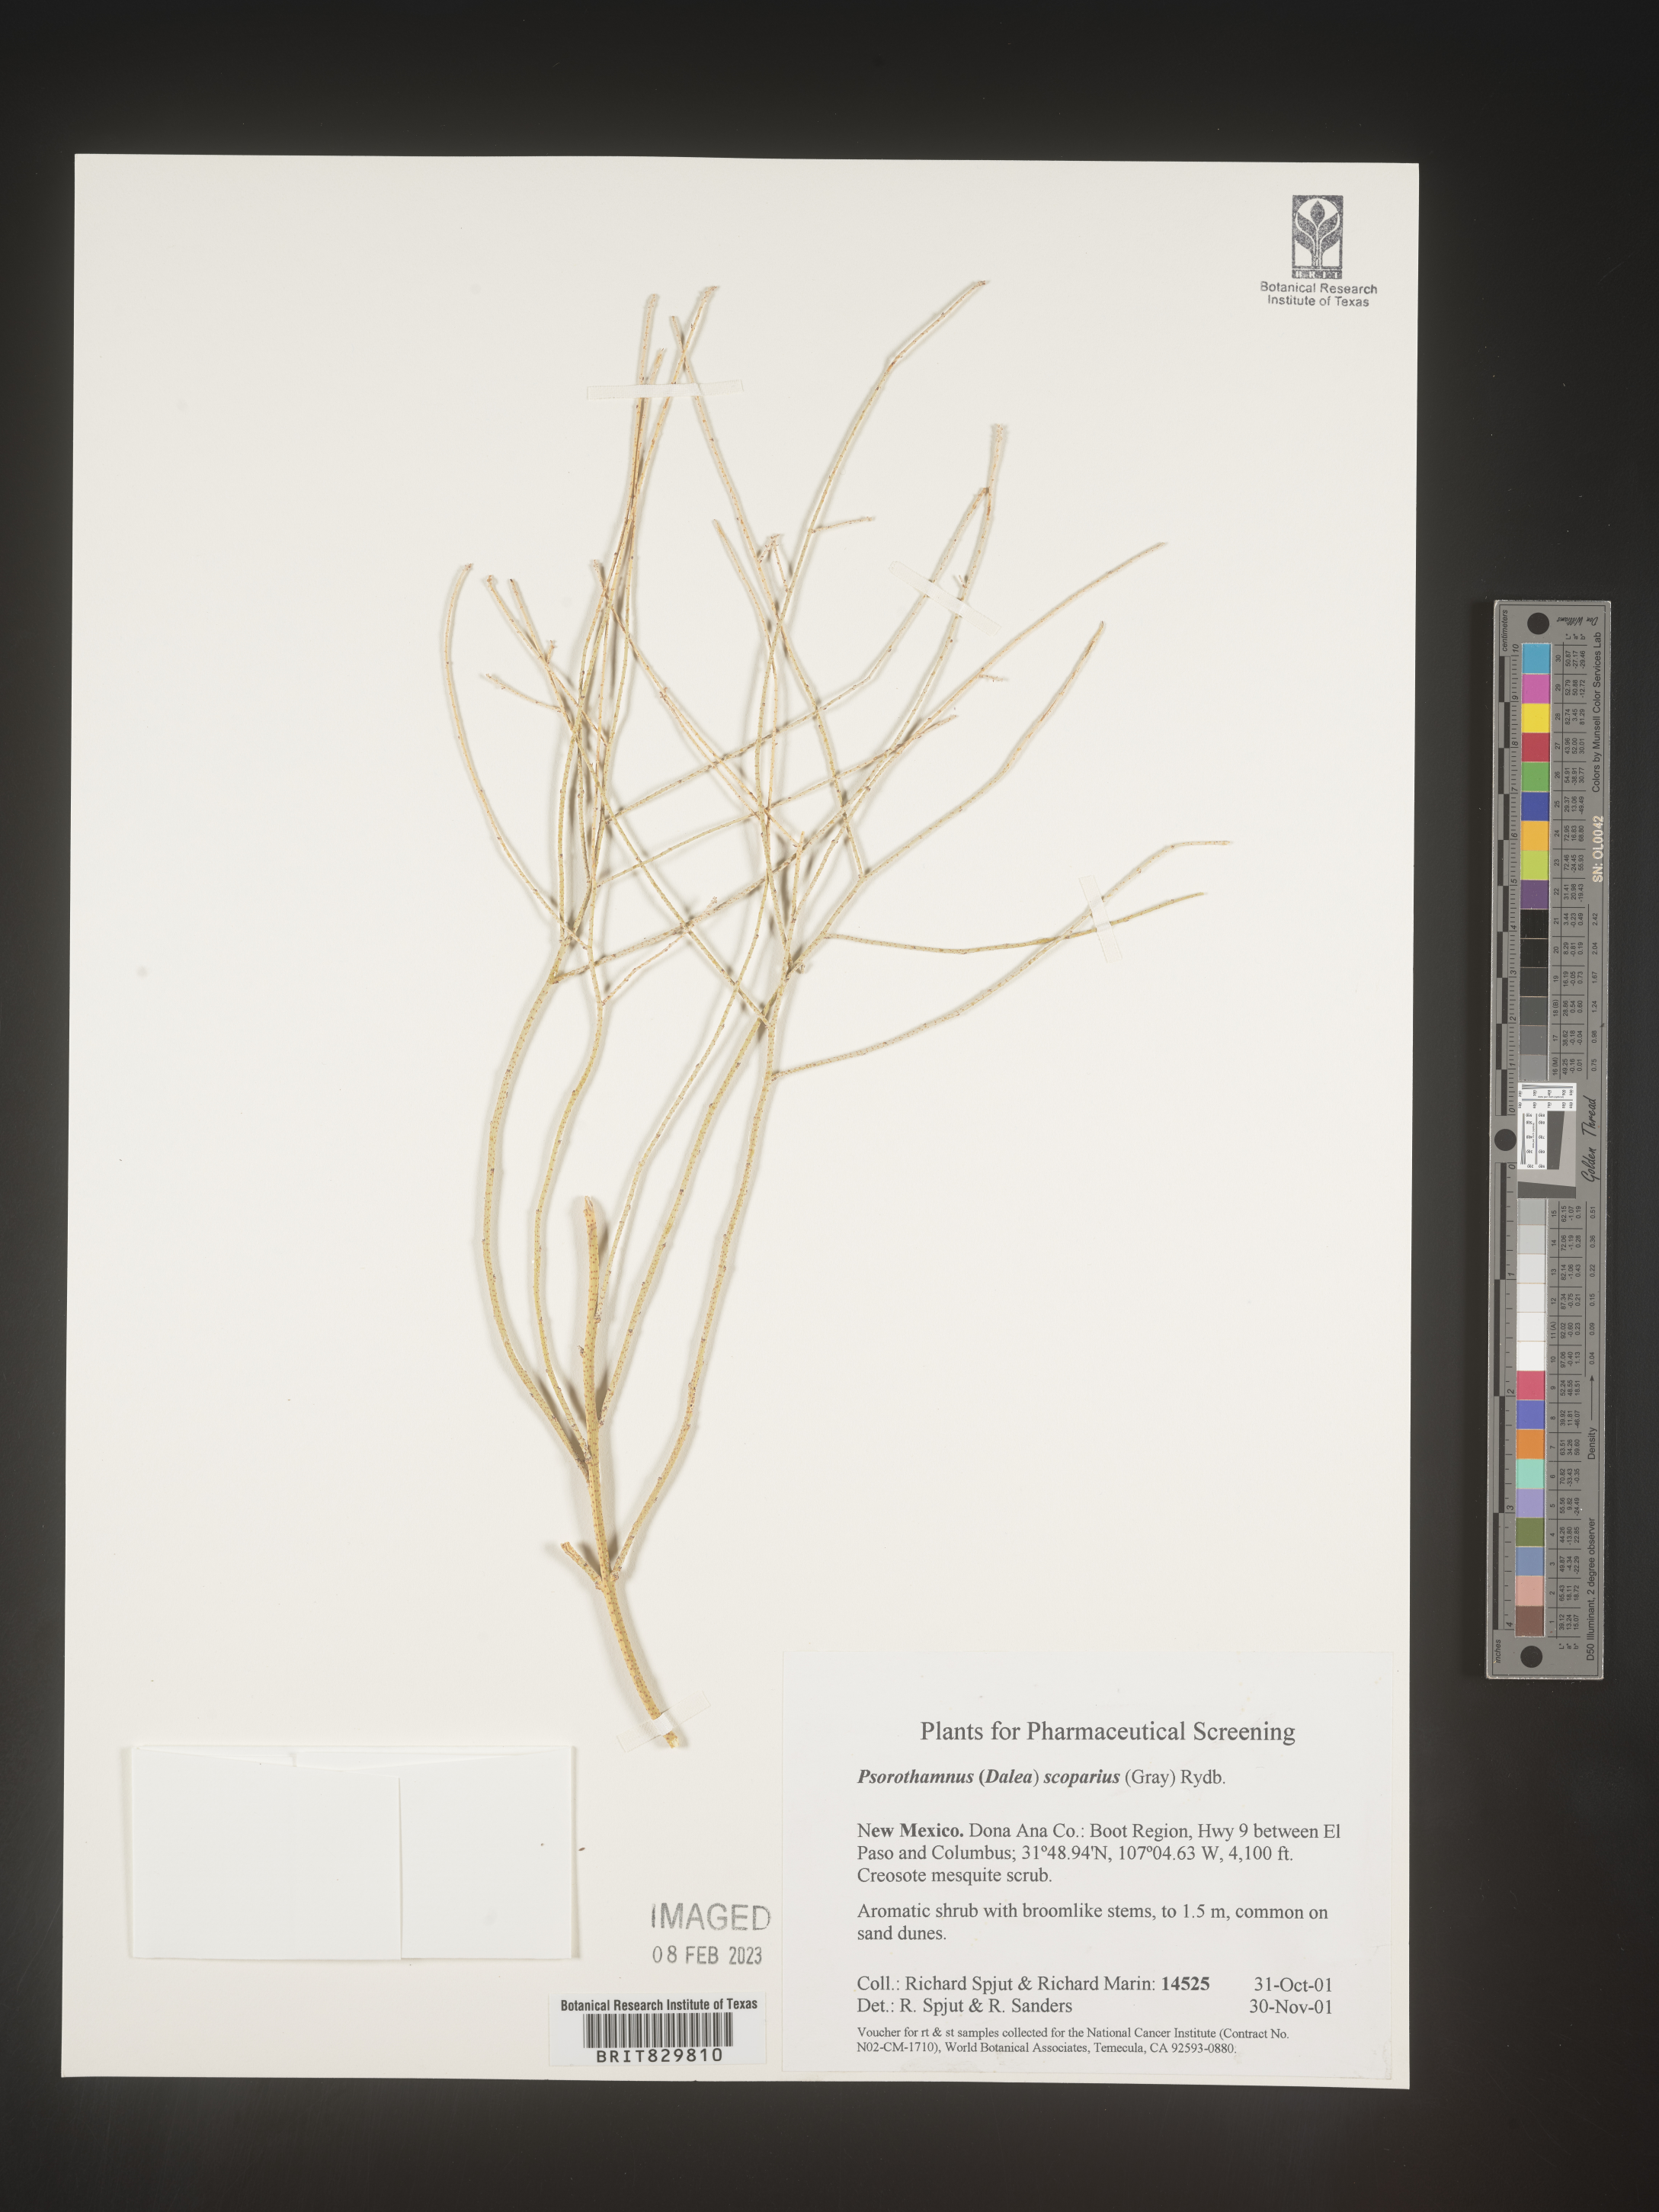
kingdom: Plantae
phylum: Tracheophyta
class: Magnoliopsida
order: Fabales
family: Fabaceae
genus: Psorothamnus
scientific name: Psorothamnus
